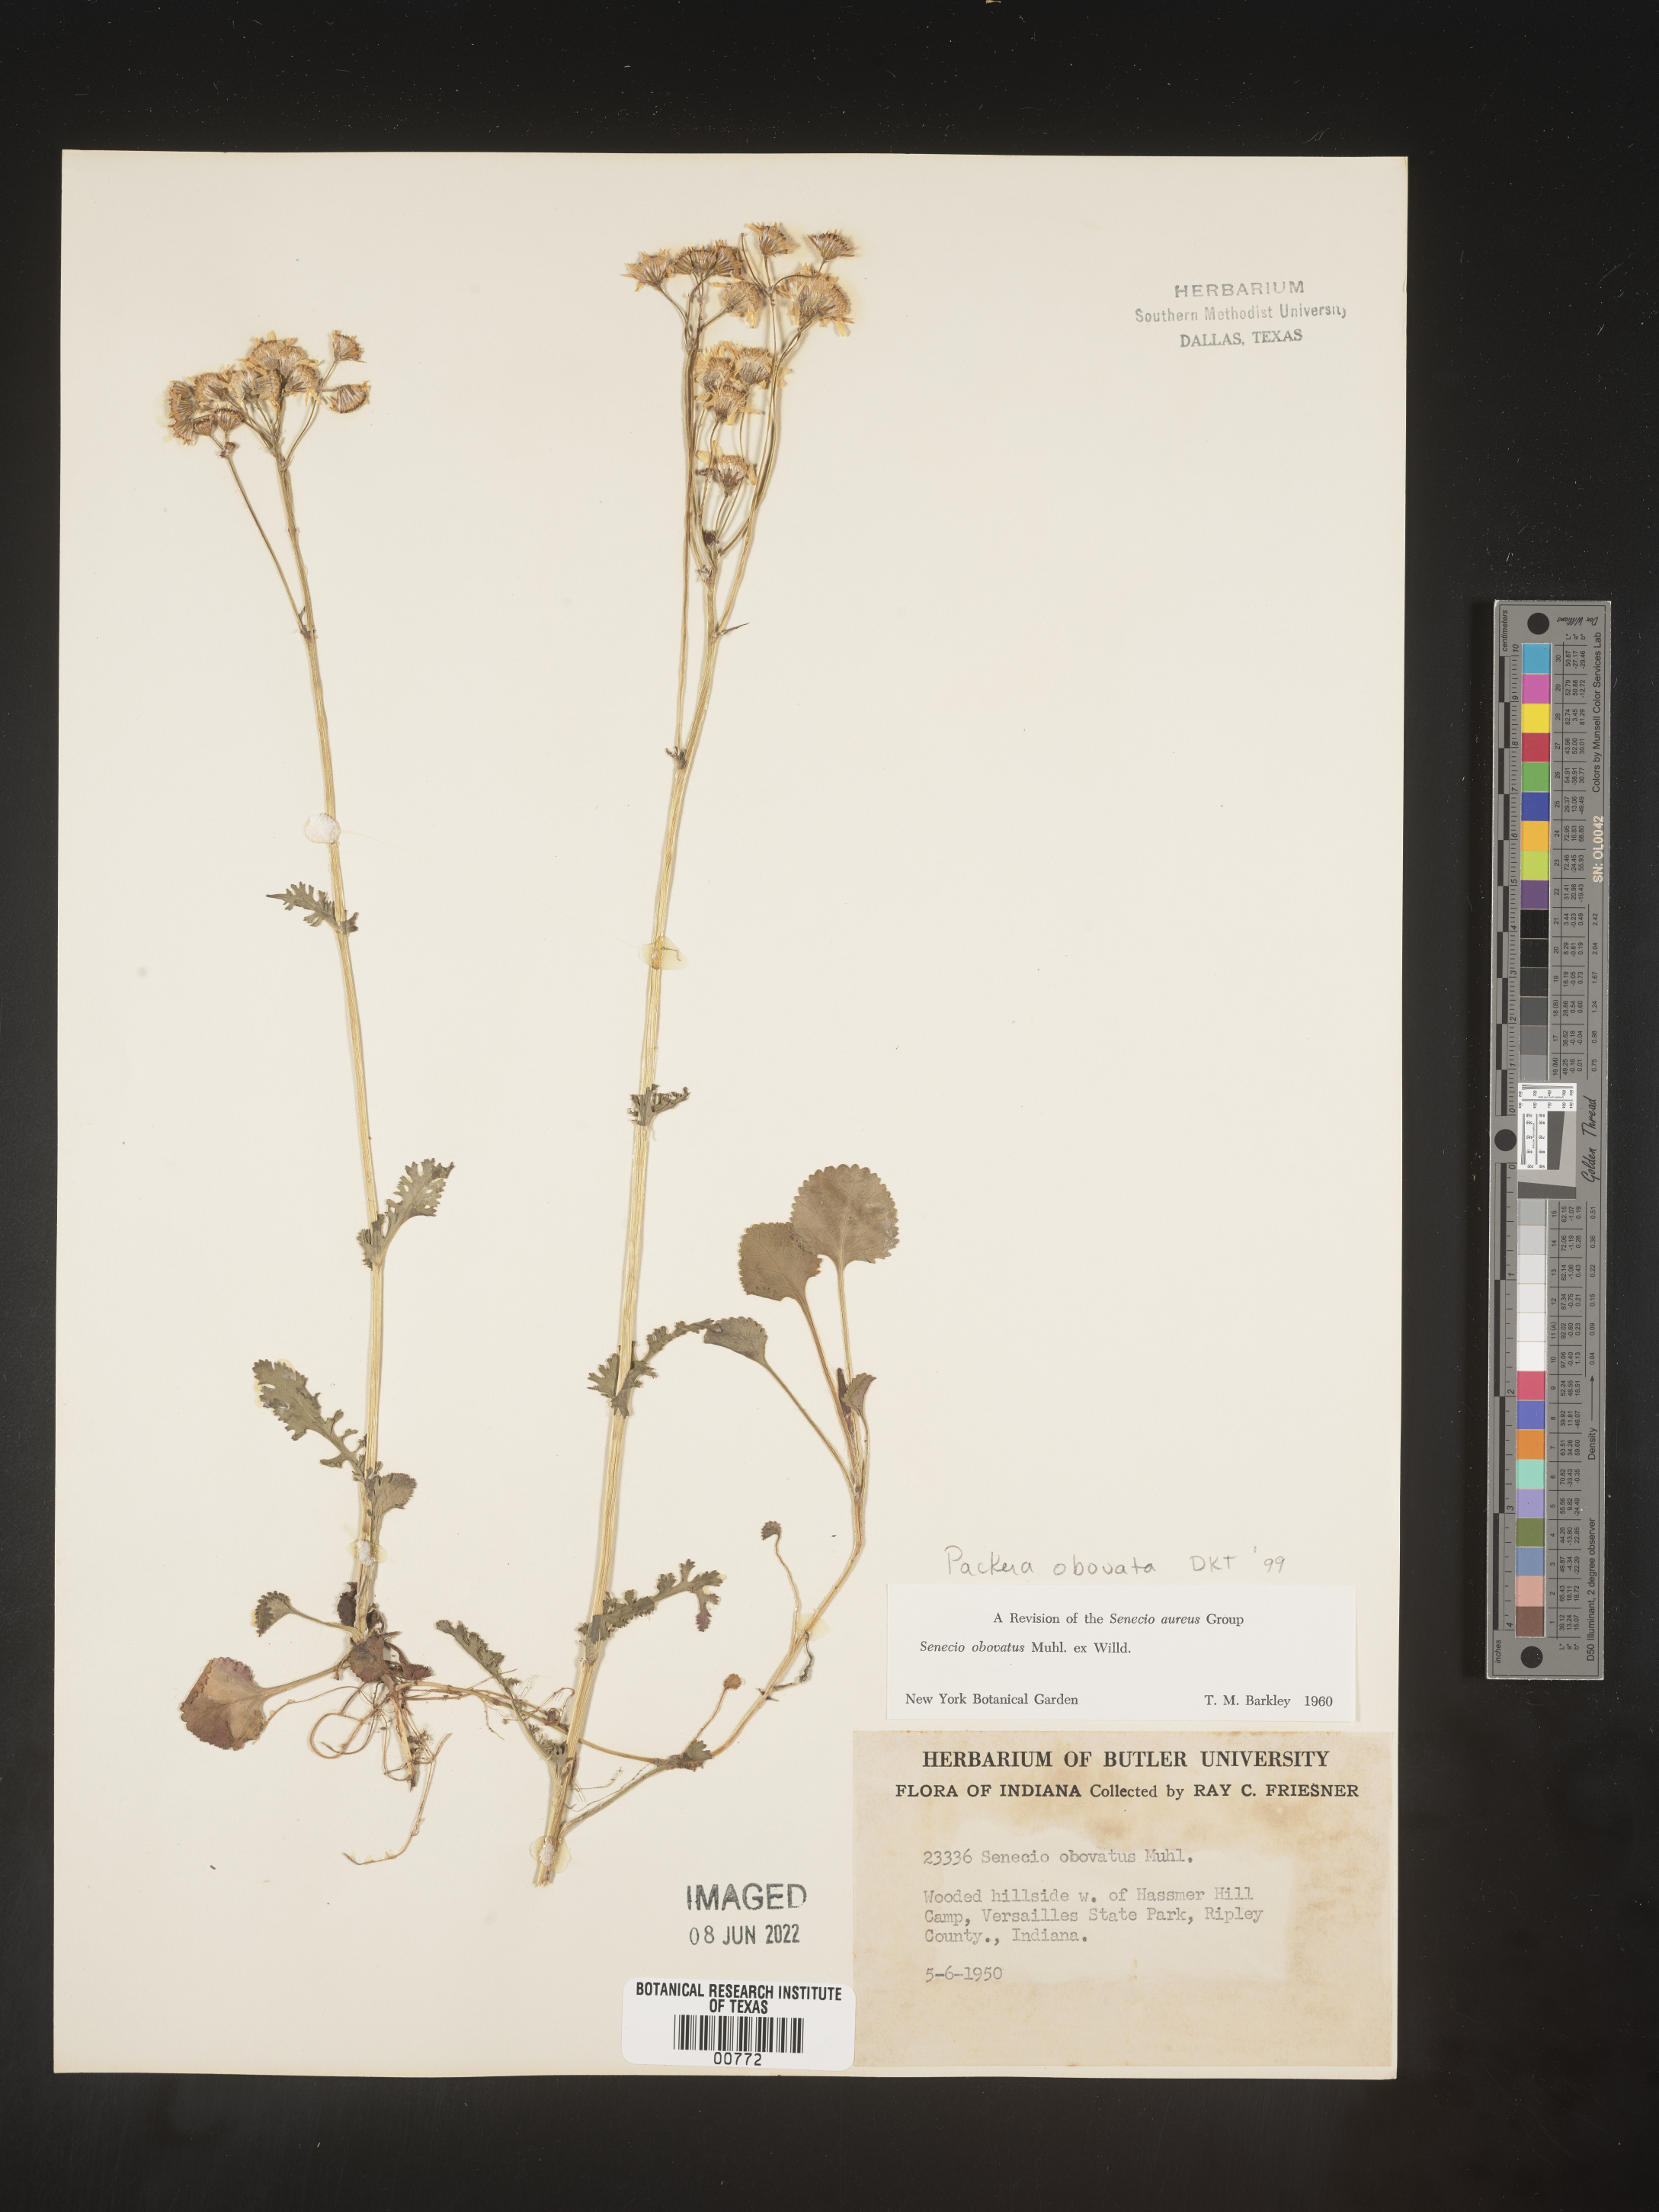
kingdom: Plantae
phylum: Tracheophyta
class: Magnoliopsida
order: Asterales
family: Asteraceae
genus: Packera
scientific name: Packera obovata
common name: Round-leaf ragwort
